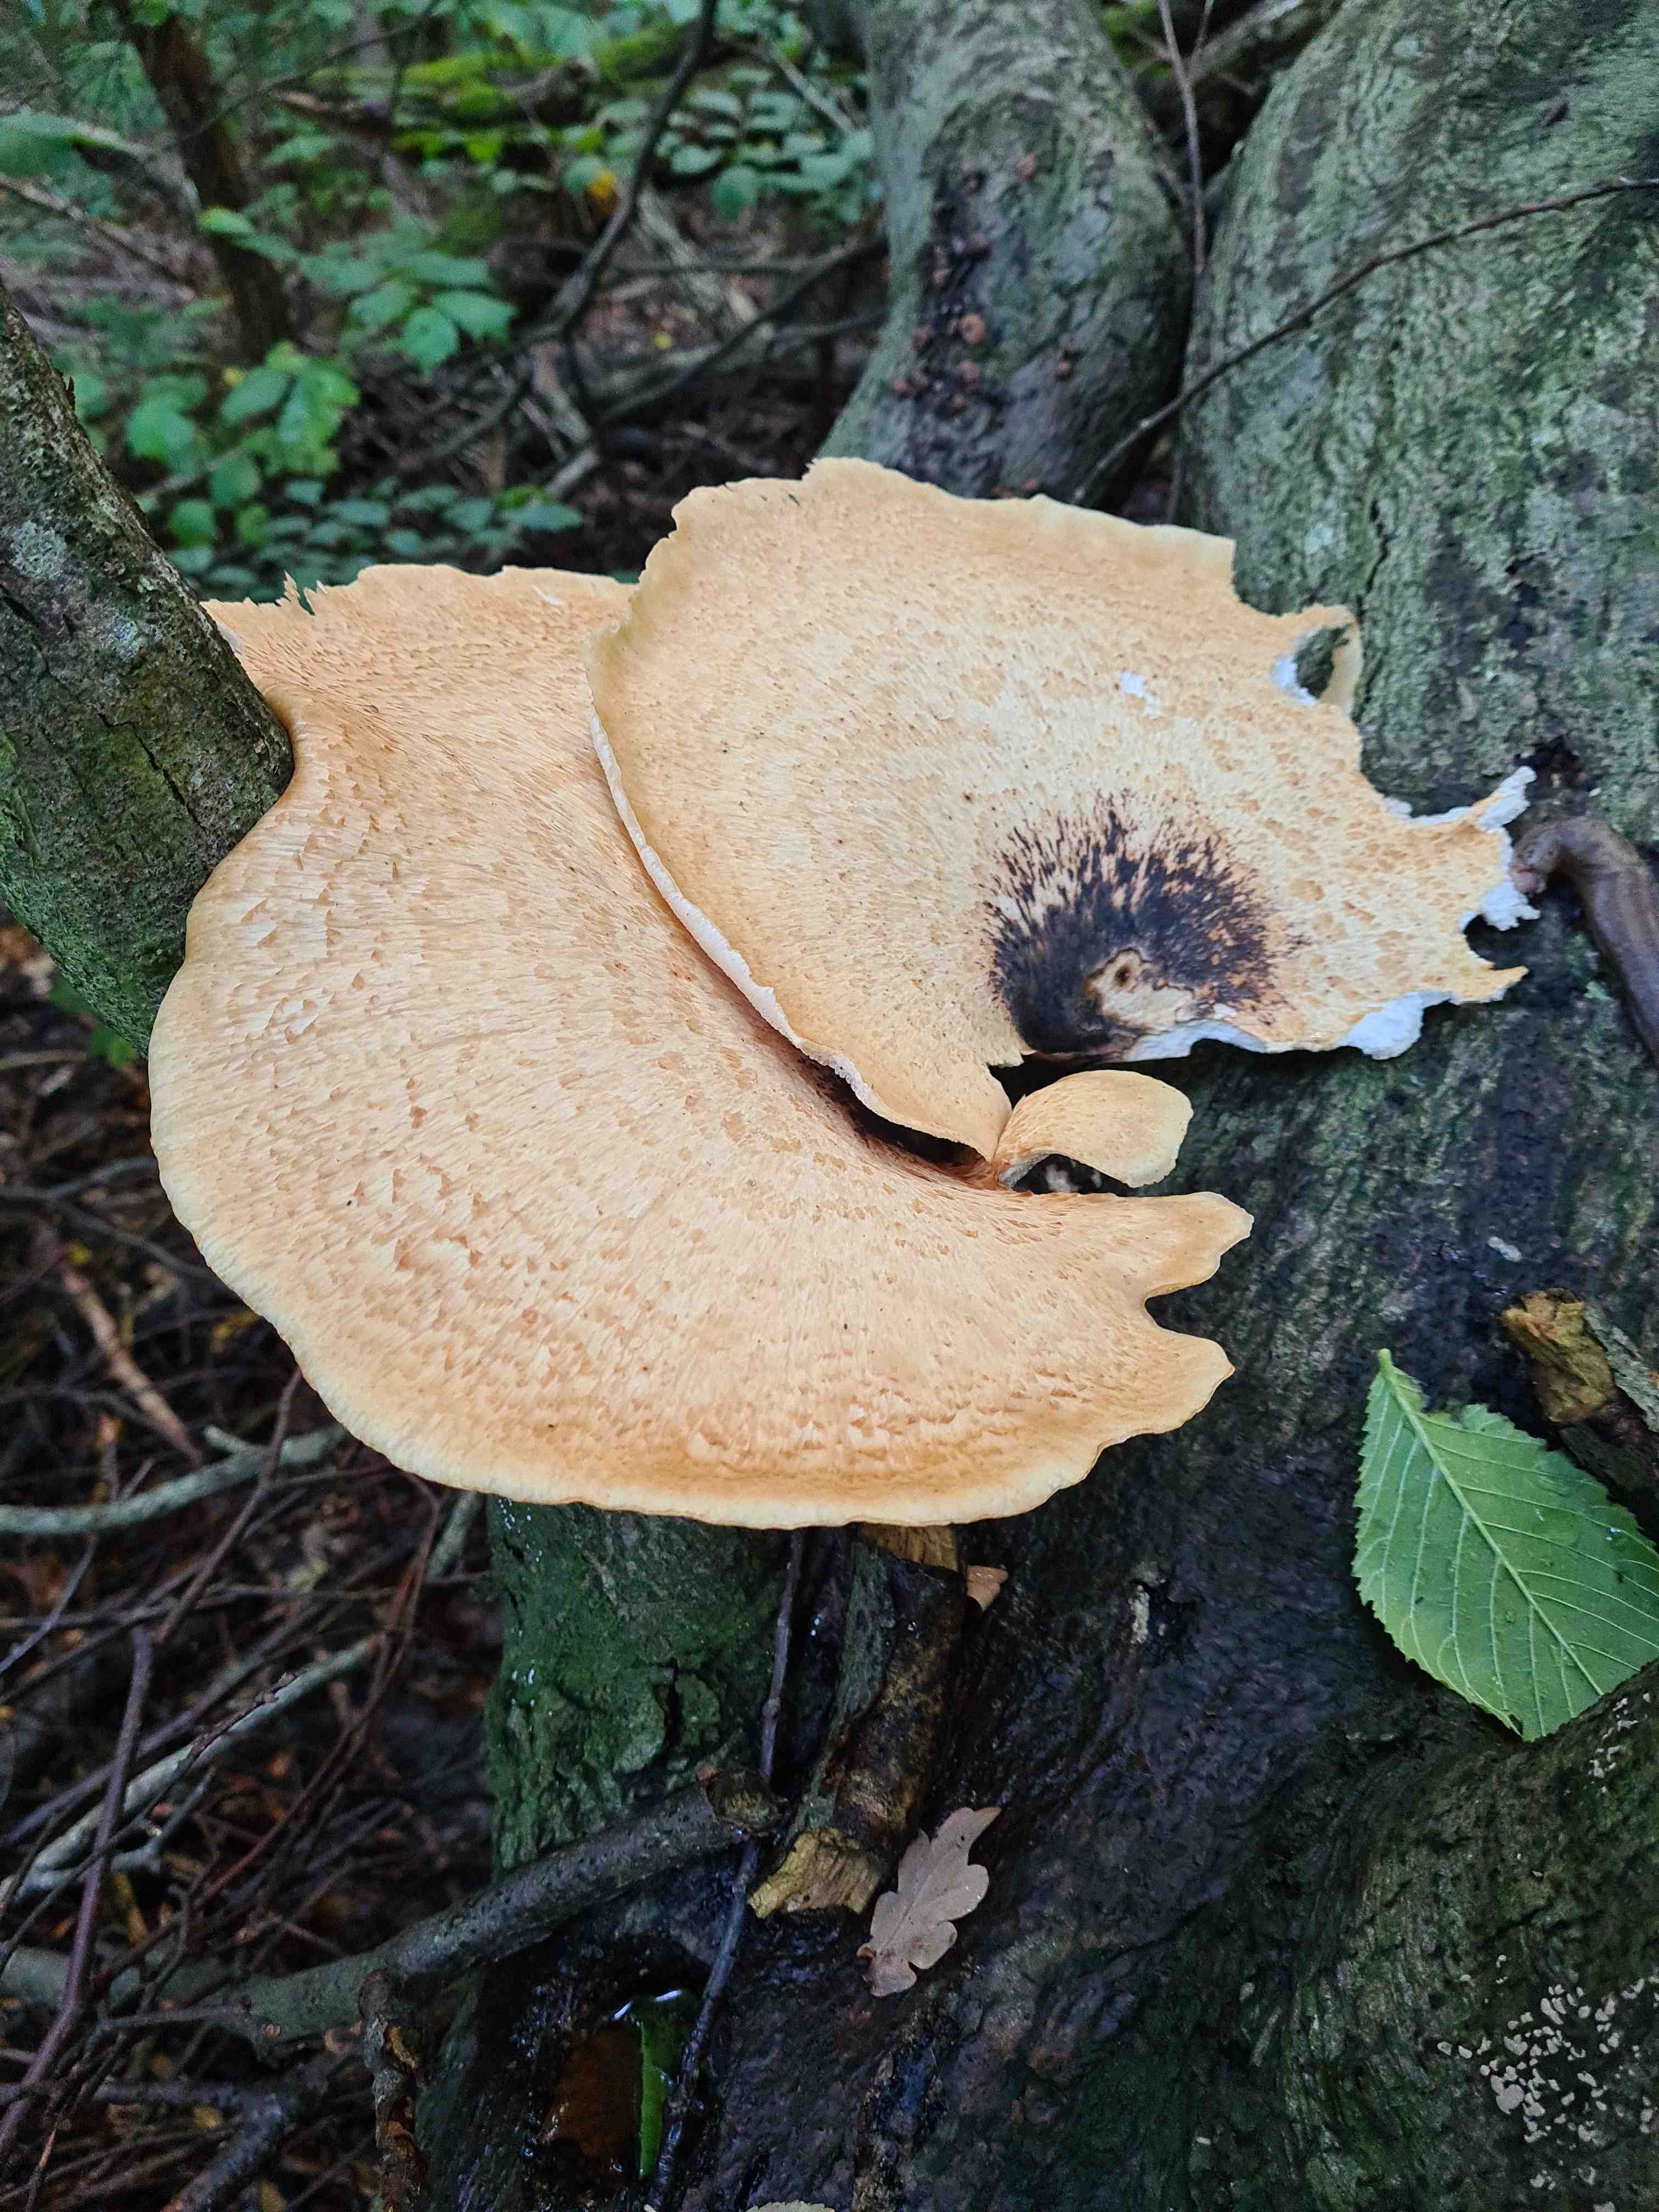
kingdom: Fungi
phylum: Basidiomycota
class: Agaricomycetes
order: Polyporales
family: Polyporaceae
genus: Cerioporus
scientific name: Cerioporus squamosus
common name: skællet stilkporesvamp
